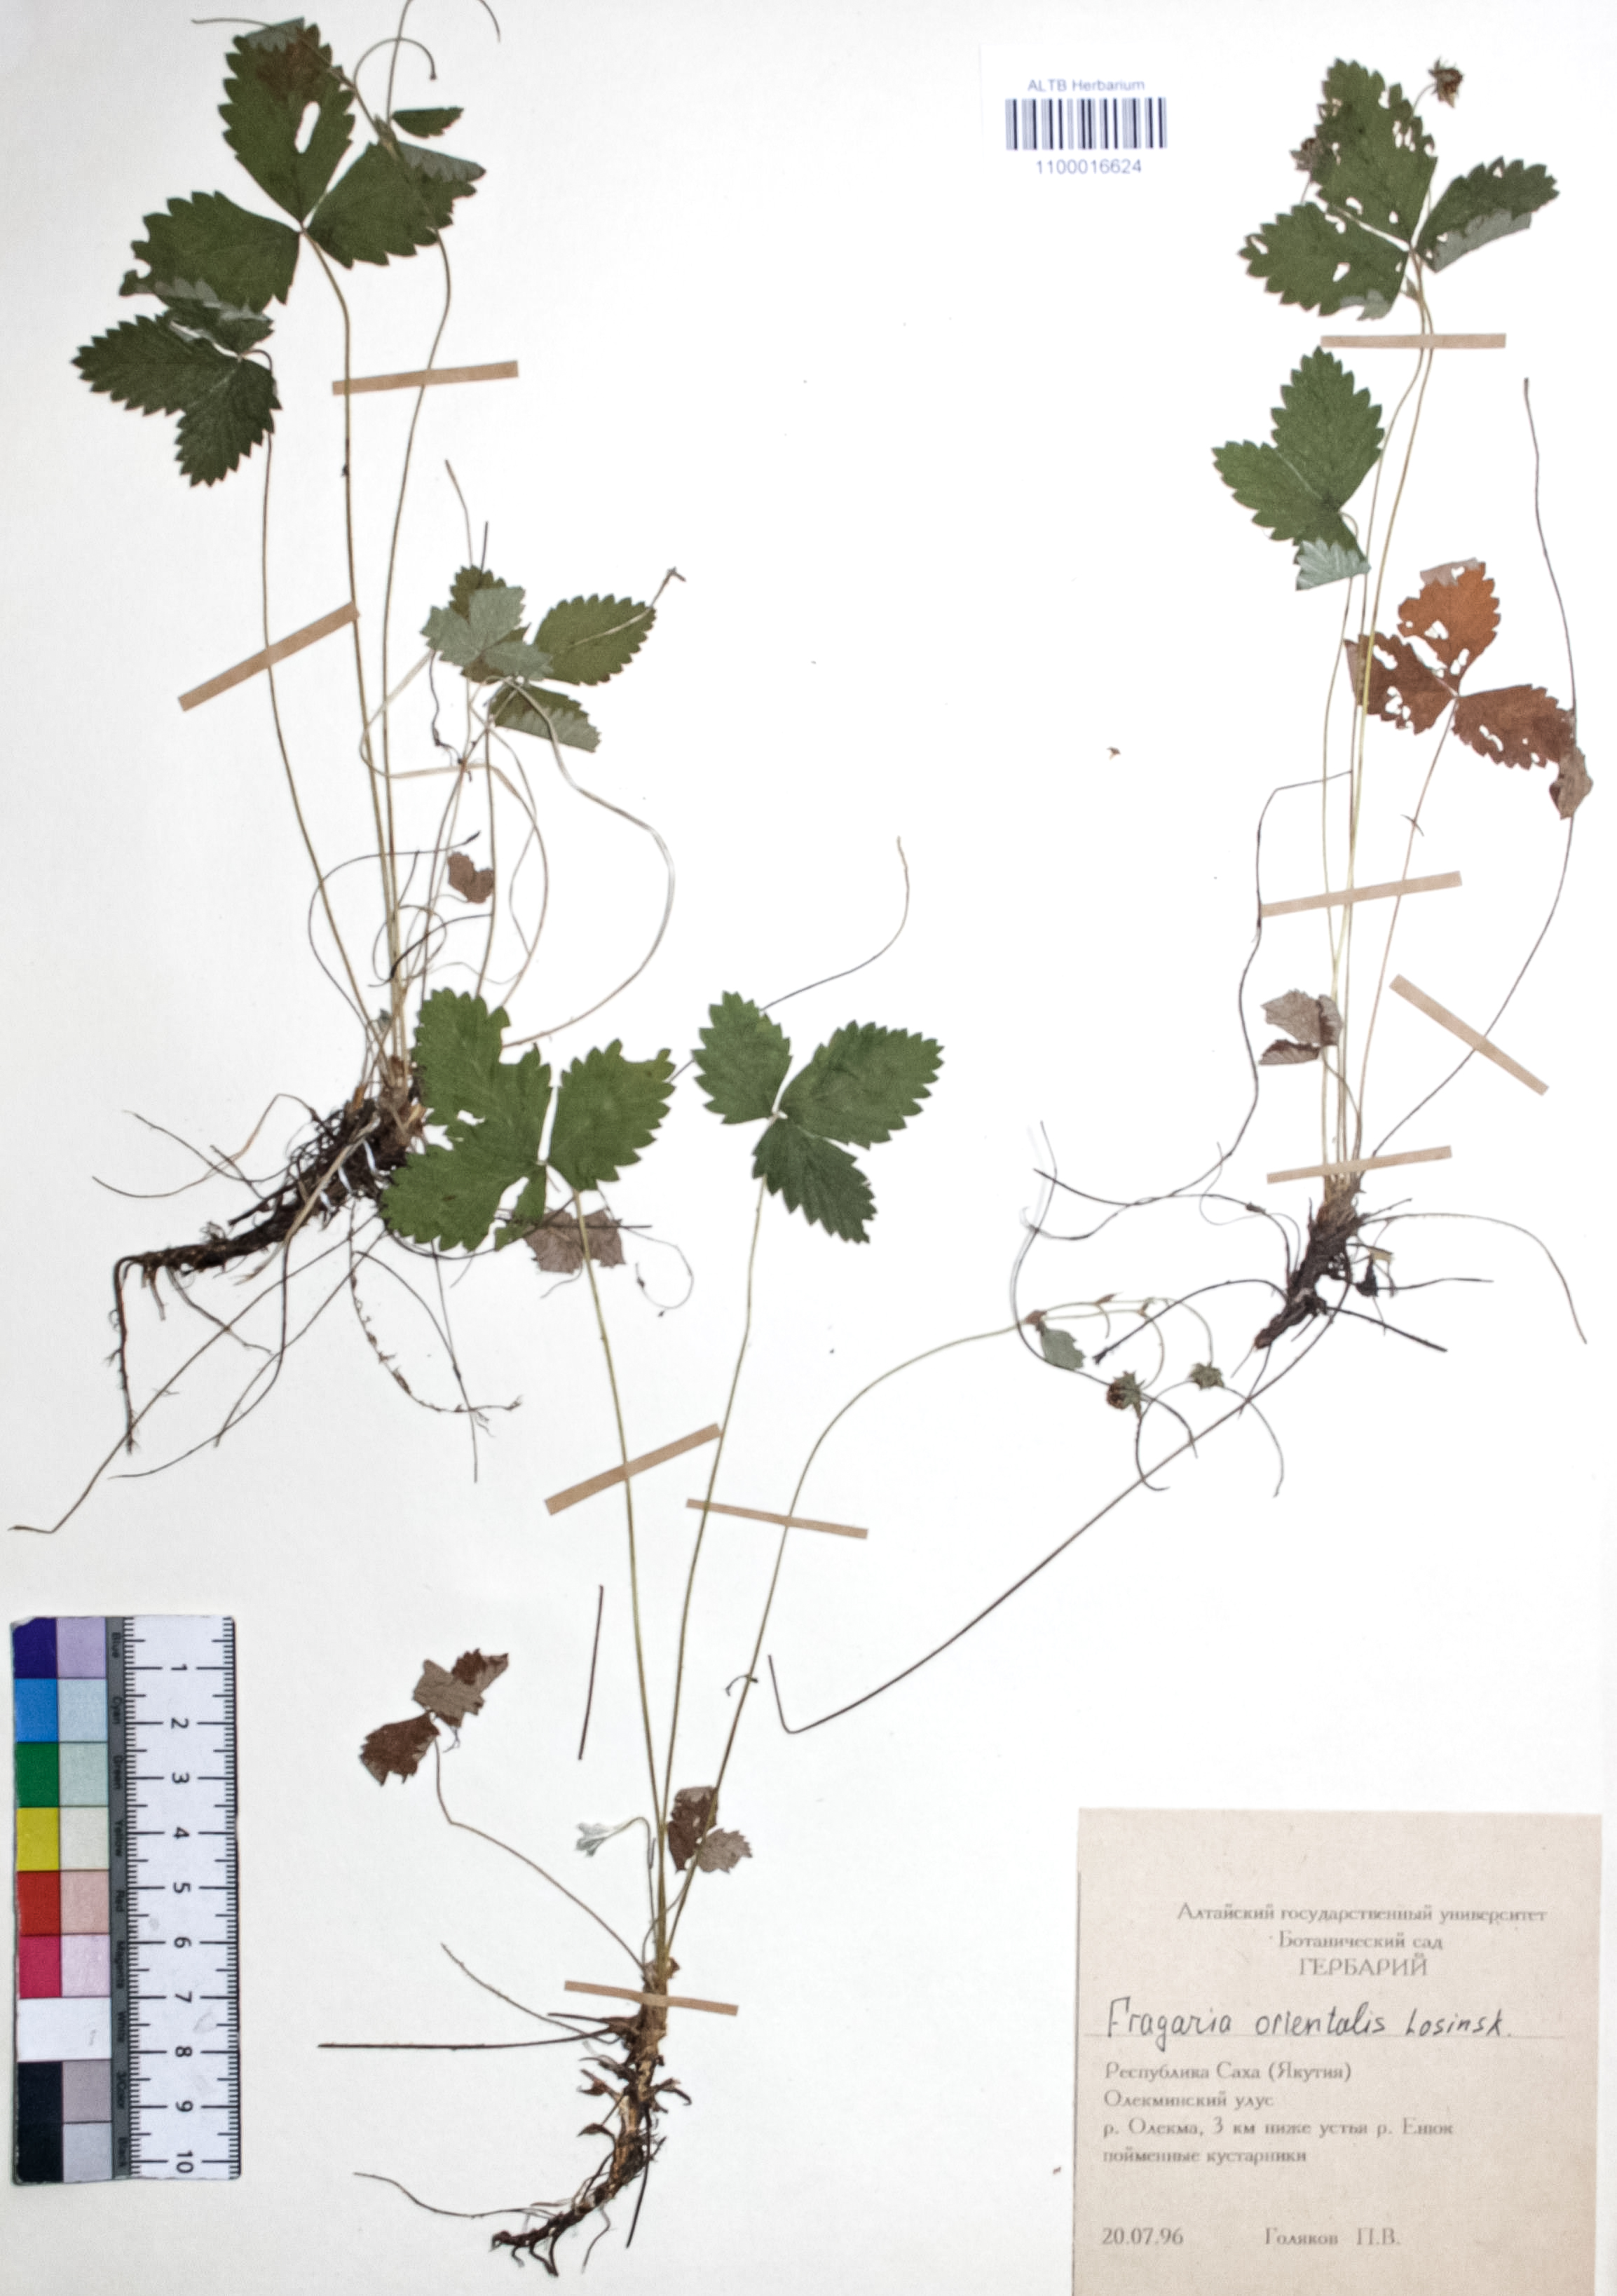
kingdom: Plantae
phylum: Tracheophyta
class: Magnoliopsida
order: Rosales
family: Rosaceae
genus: Fragaria
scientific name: Fragaria orientalis
